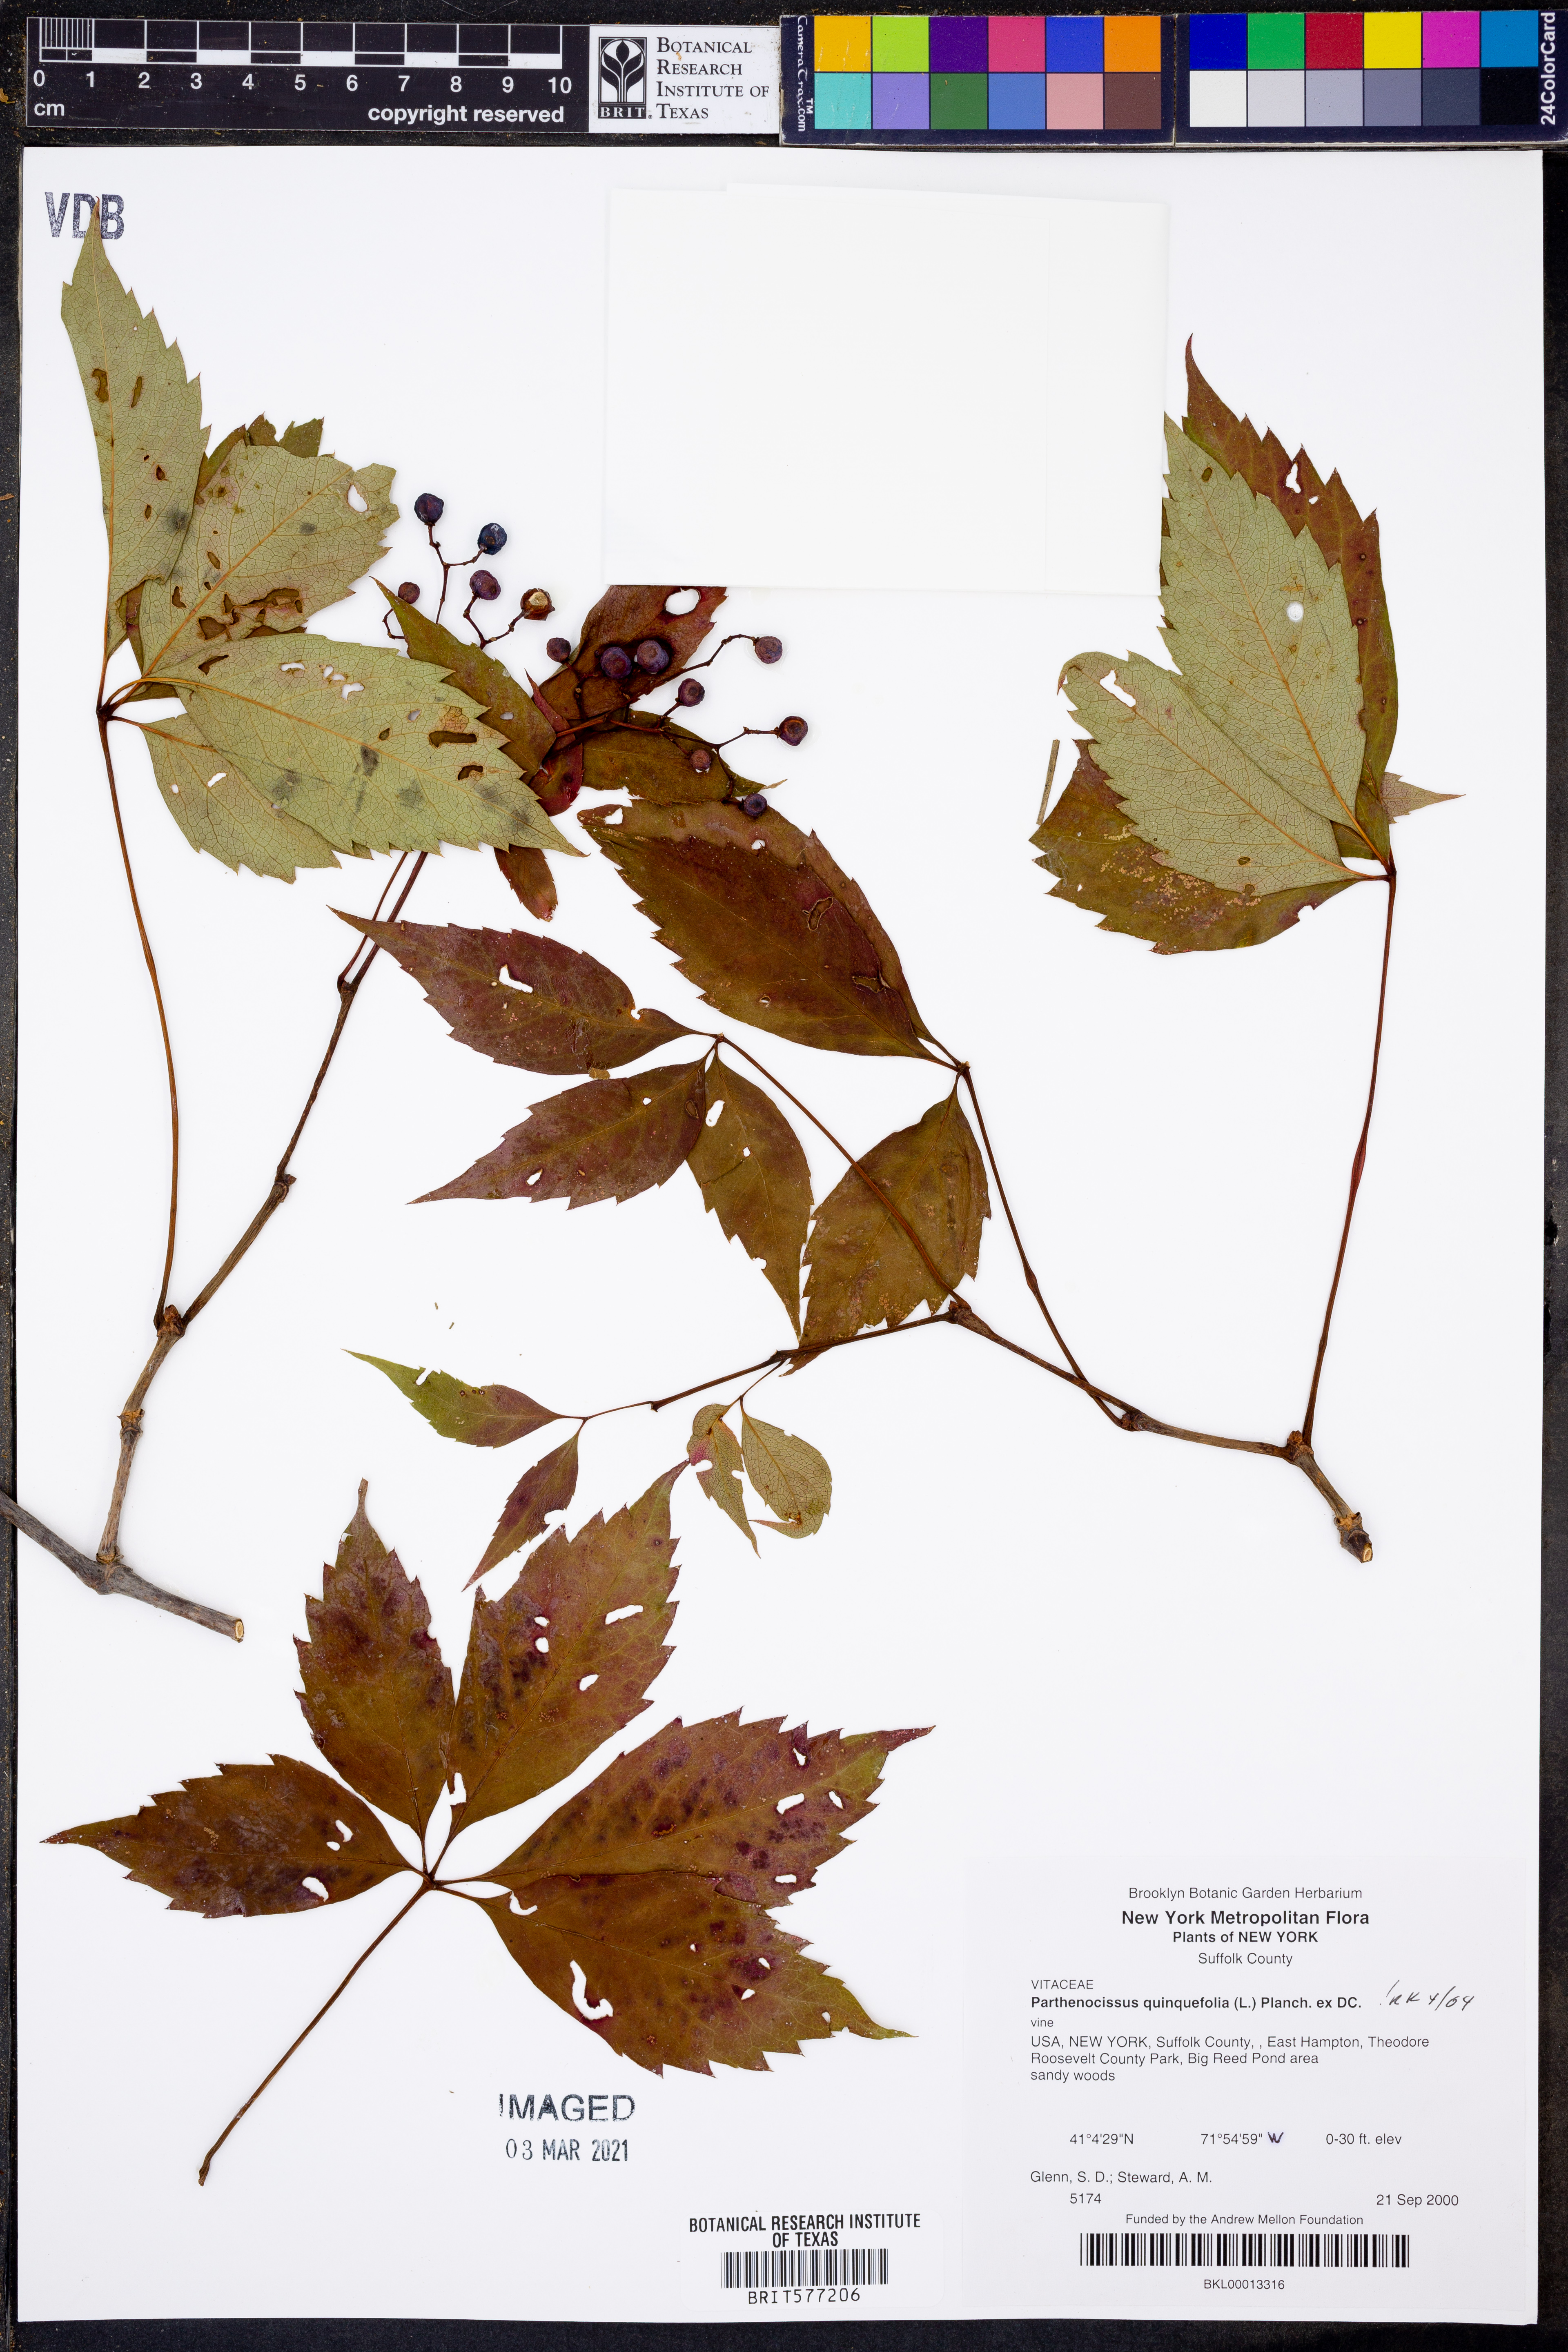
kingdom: Plantae
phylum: Tracheophyta
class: Magnoliopsida
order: Vitales
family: Vitaceae
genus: Parthenocissus
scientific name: Parthenocissus quinquefolia
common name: Virginia-creeper
